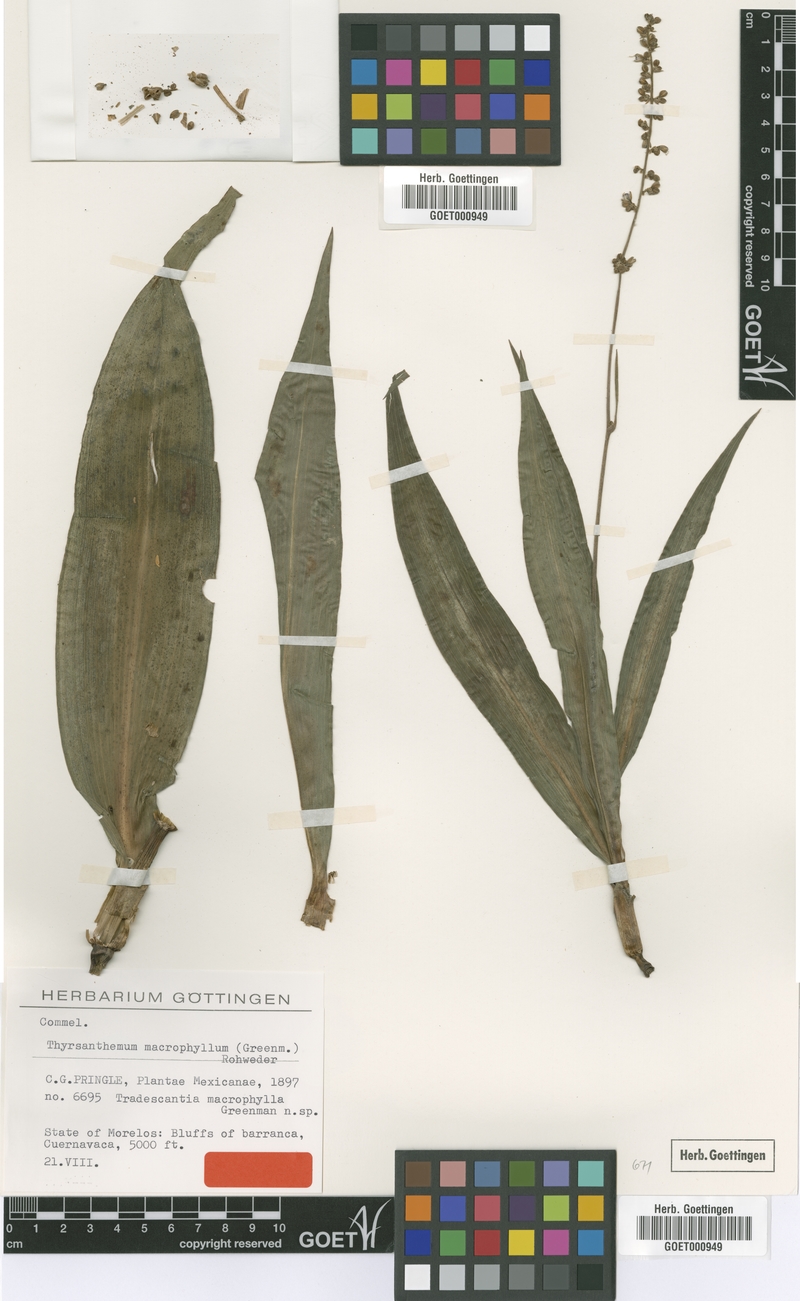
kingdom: Plantae
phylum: Tracheophyta
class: Liliopsida
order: Commelinales
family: Commelinaceae
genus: Thyrsanthemum
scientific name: Thyrsanthemum longifolium
